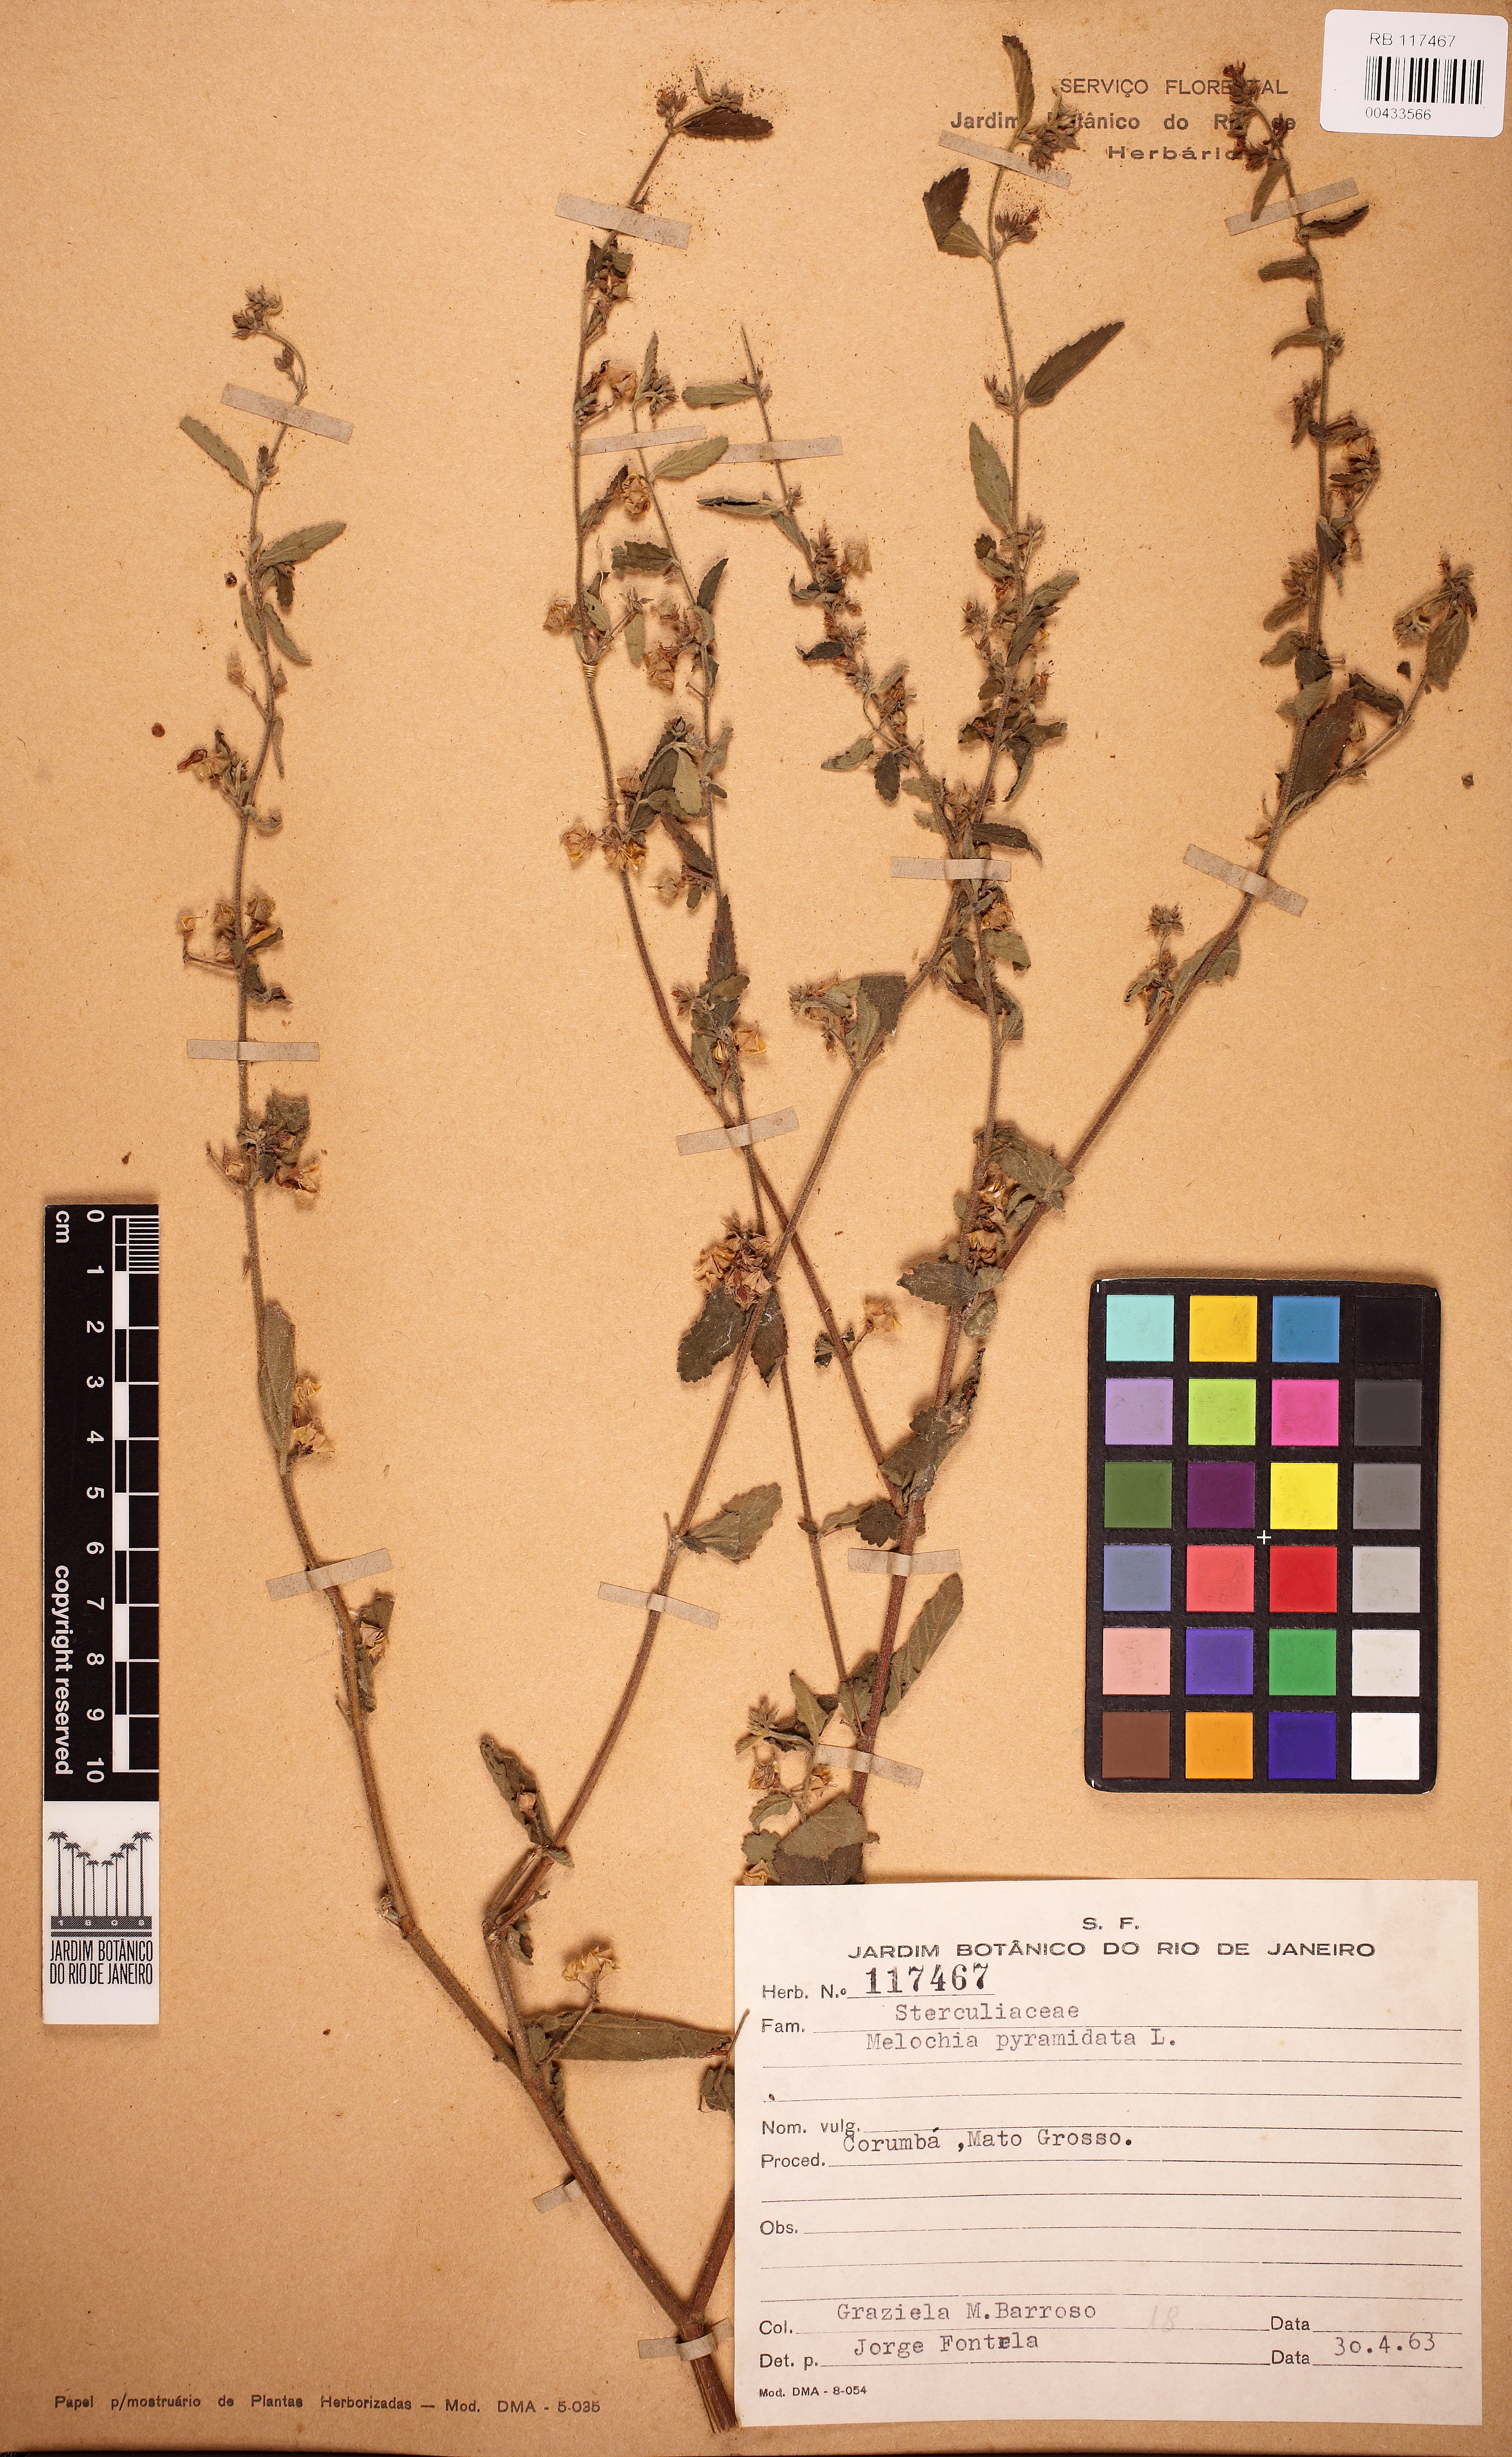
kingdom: Plantae
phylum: Tracheophyta
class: Magnoliopsida
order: Malvales
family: Malvaceae
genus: Melochia
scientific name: Melochia pyramidata
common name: Pyramidflower
